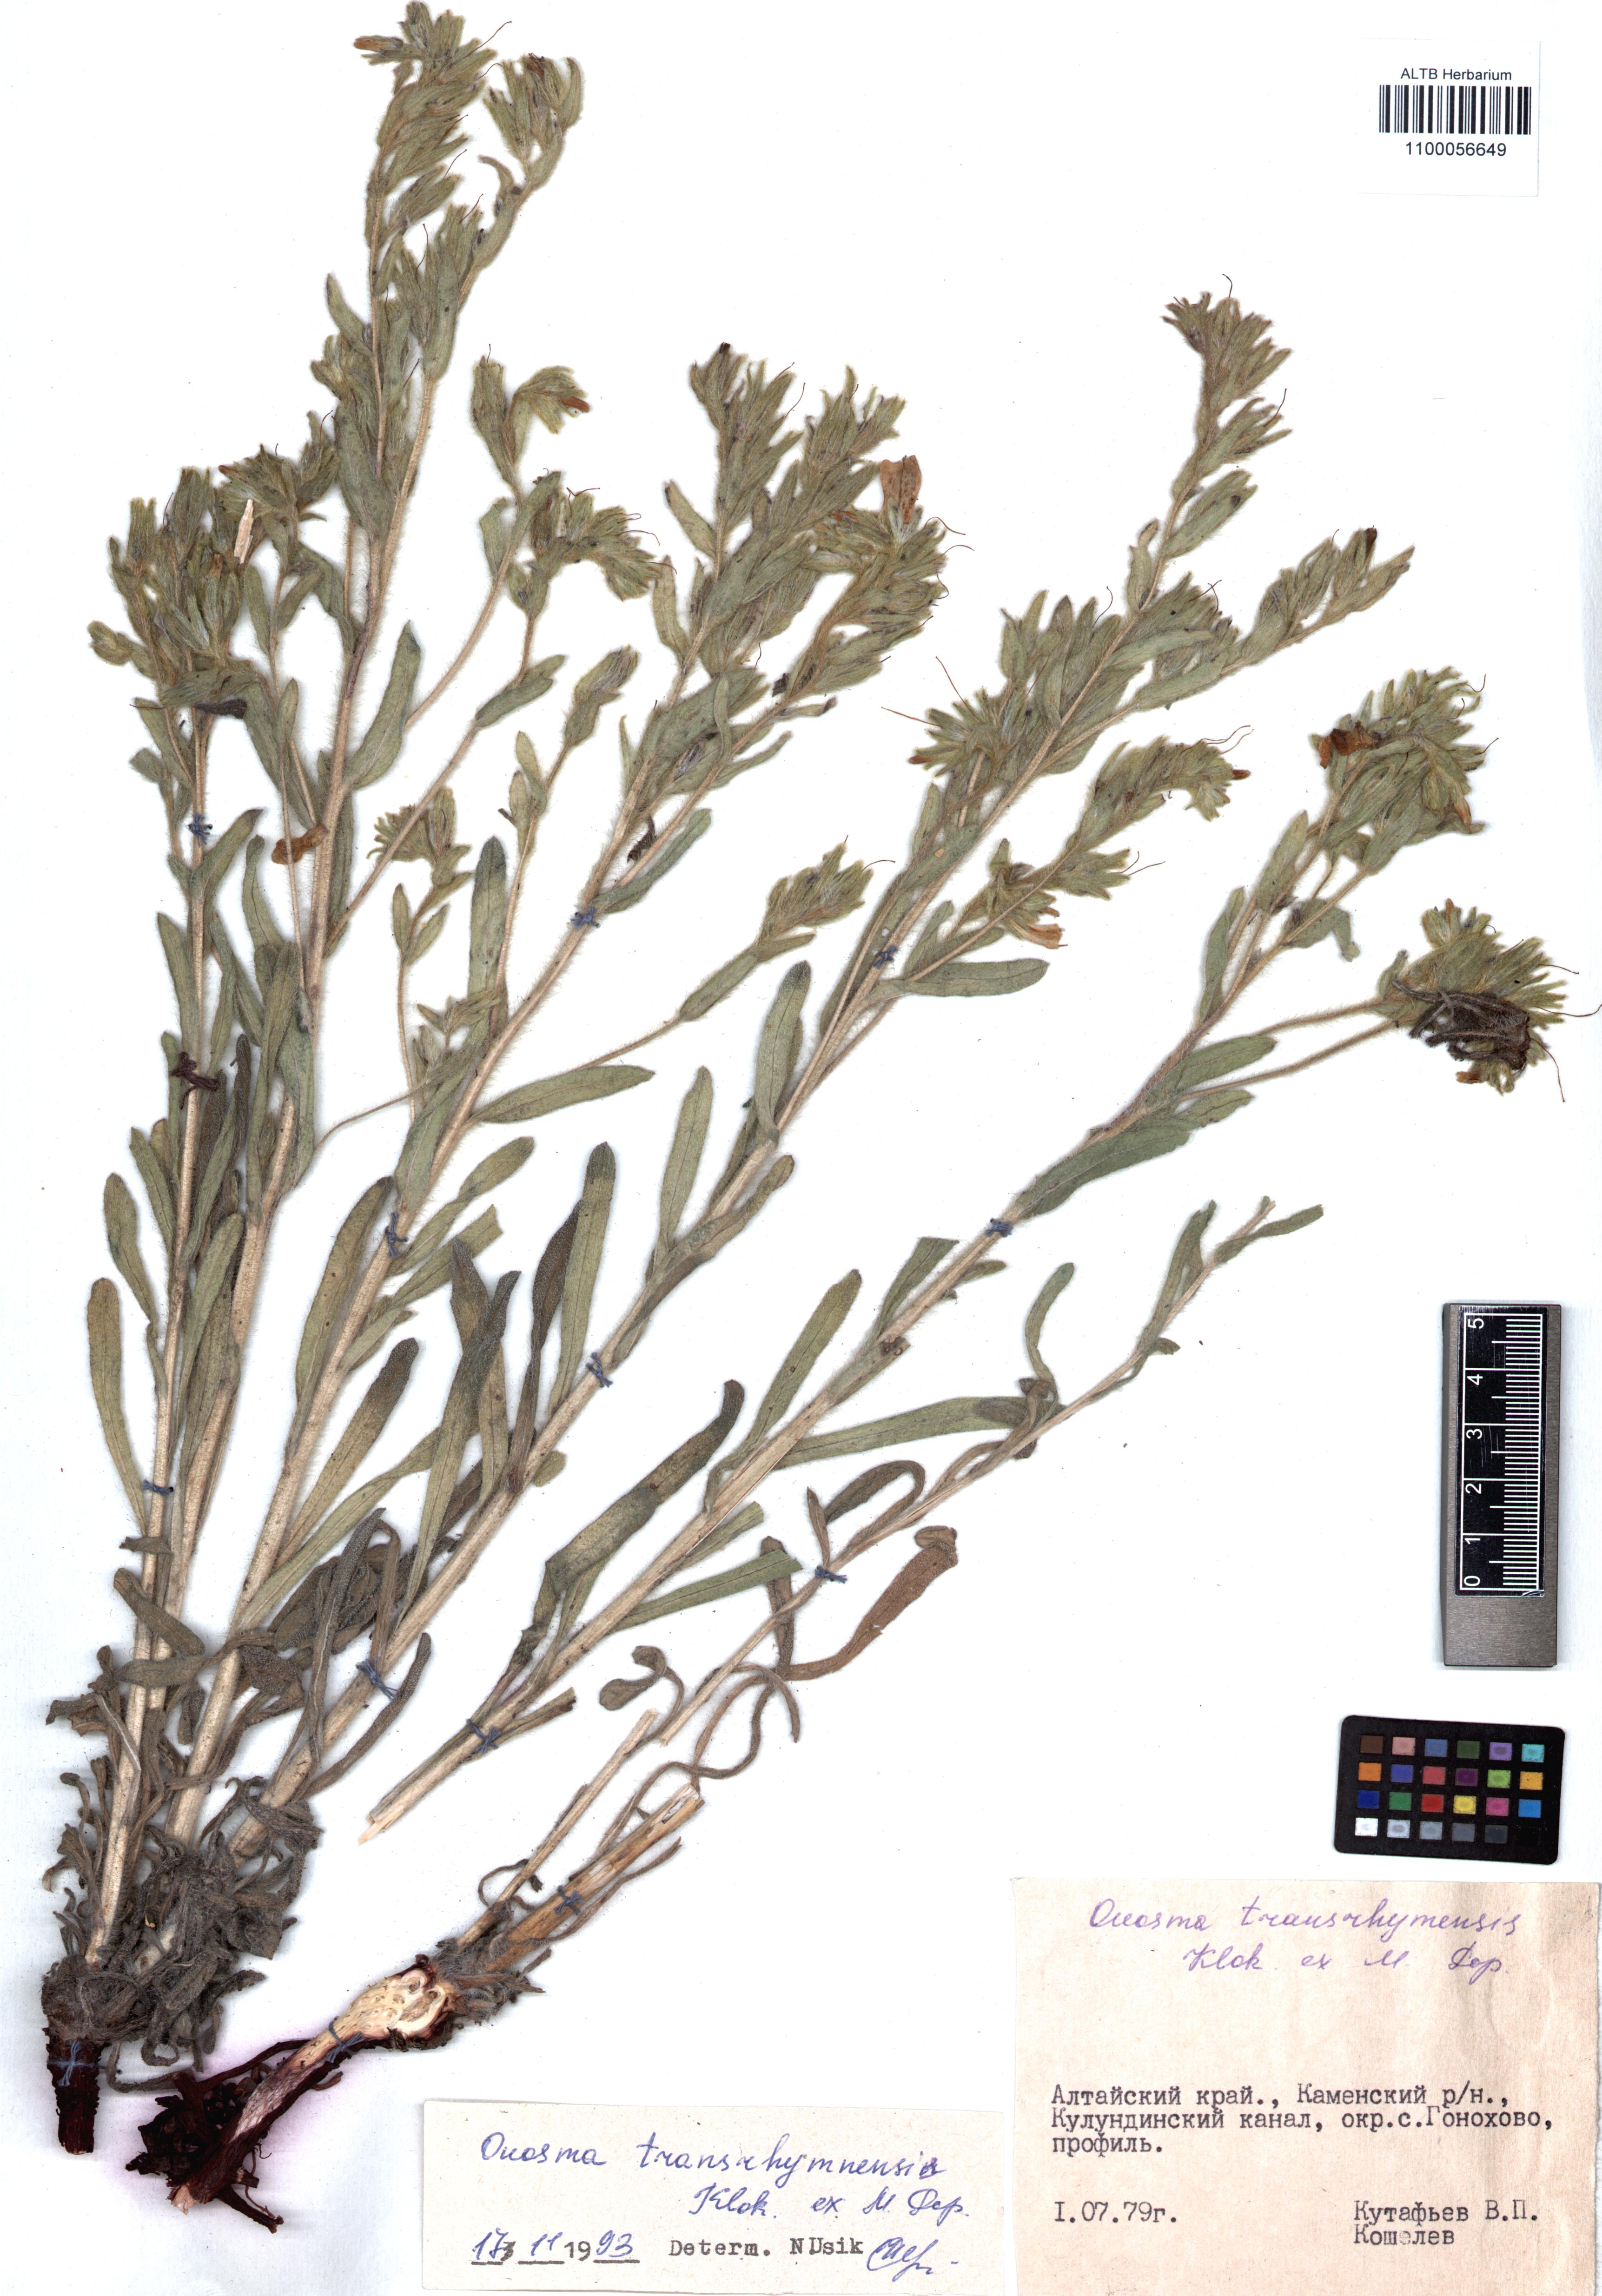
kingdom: Plantae
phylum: Tracheophyta
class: Magnoliopsida
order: Boraginales
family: Boraginaceae
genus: Onosma
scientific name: Onosma transrhymnensis
